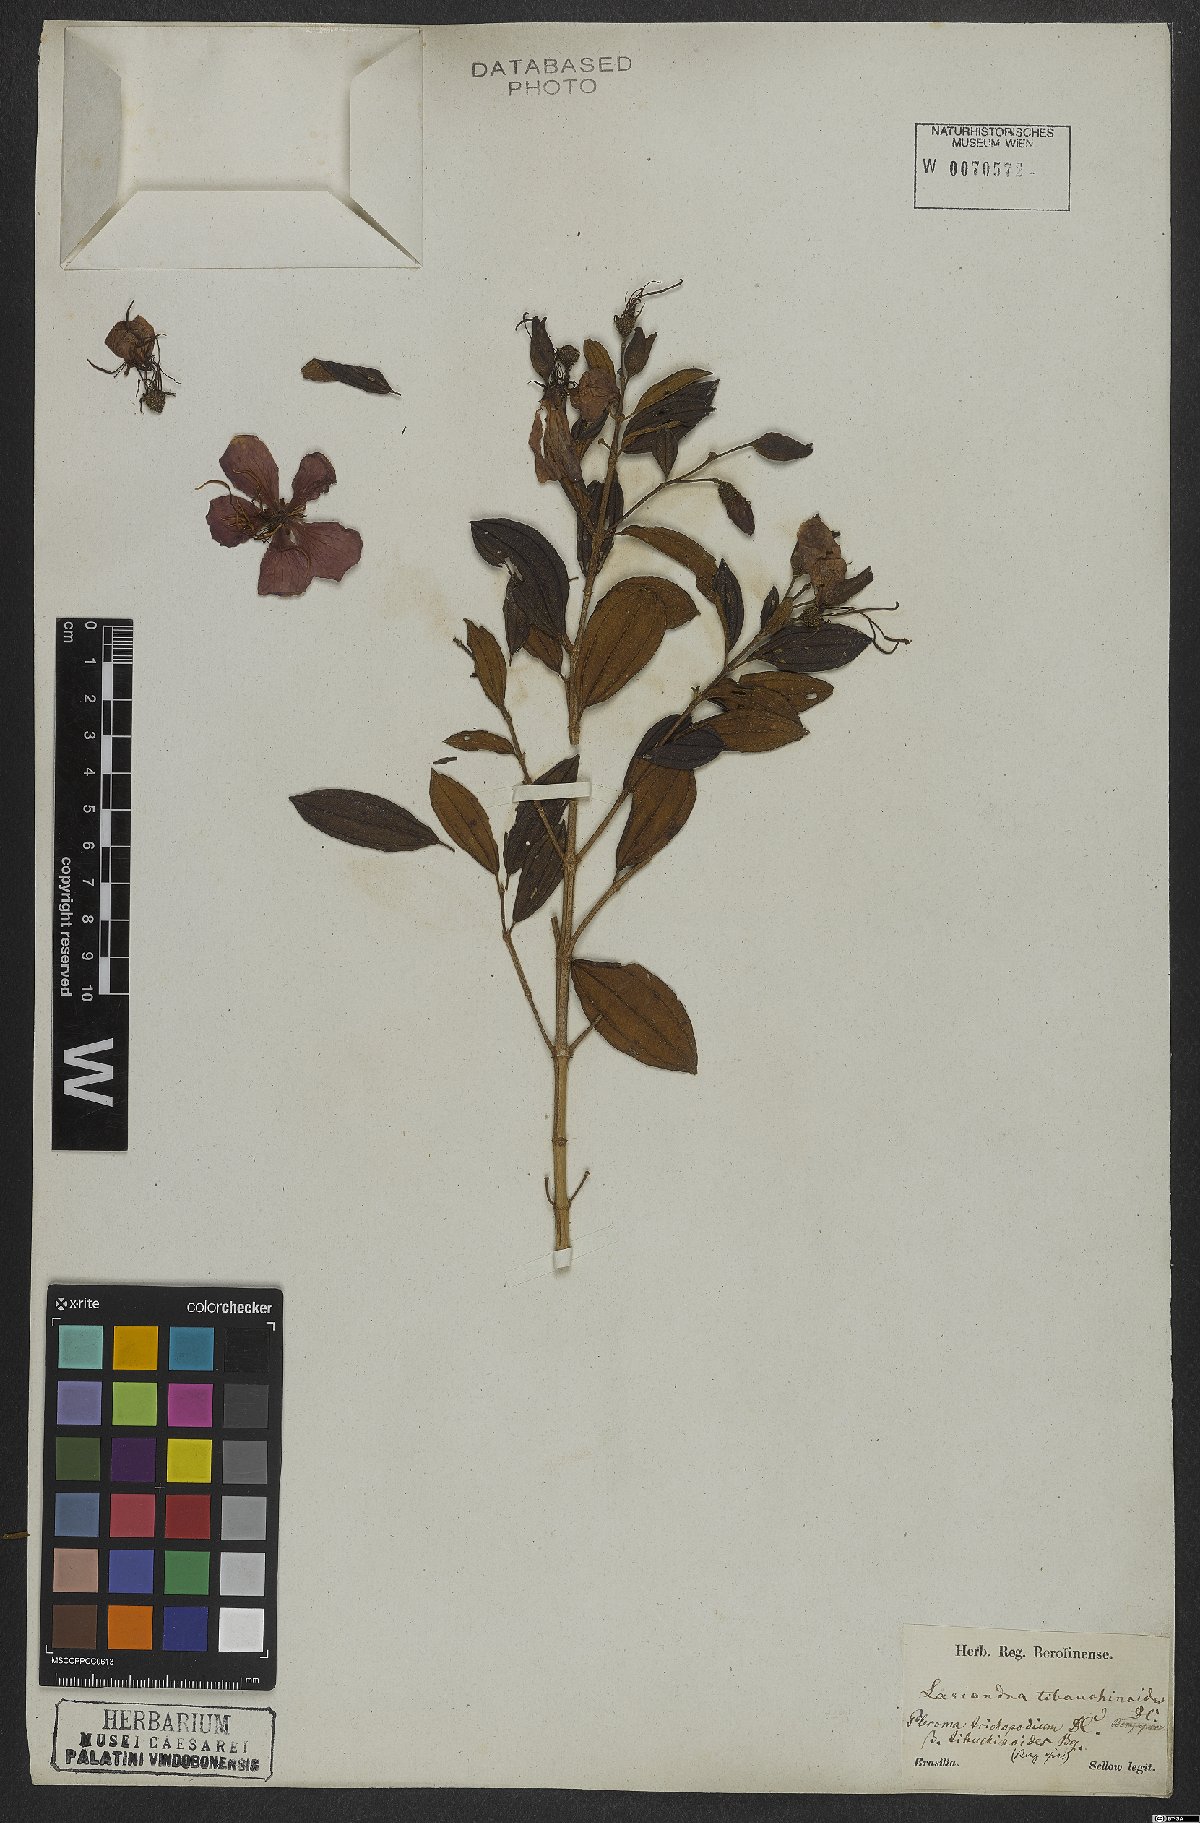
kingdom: Plantae
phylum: Tracheophyta
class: Magnoliopsida
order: Myrtales
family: Melastomataceae
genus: Pleroma
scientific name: Pleroma trichopodum
